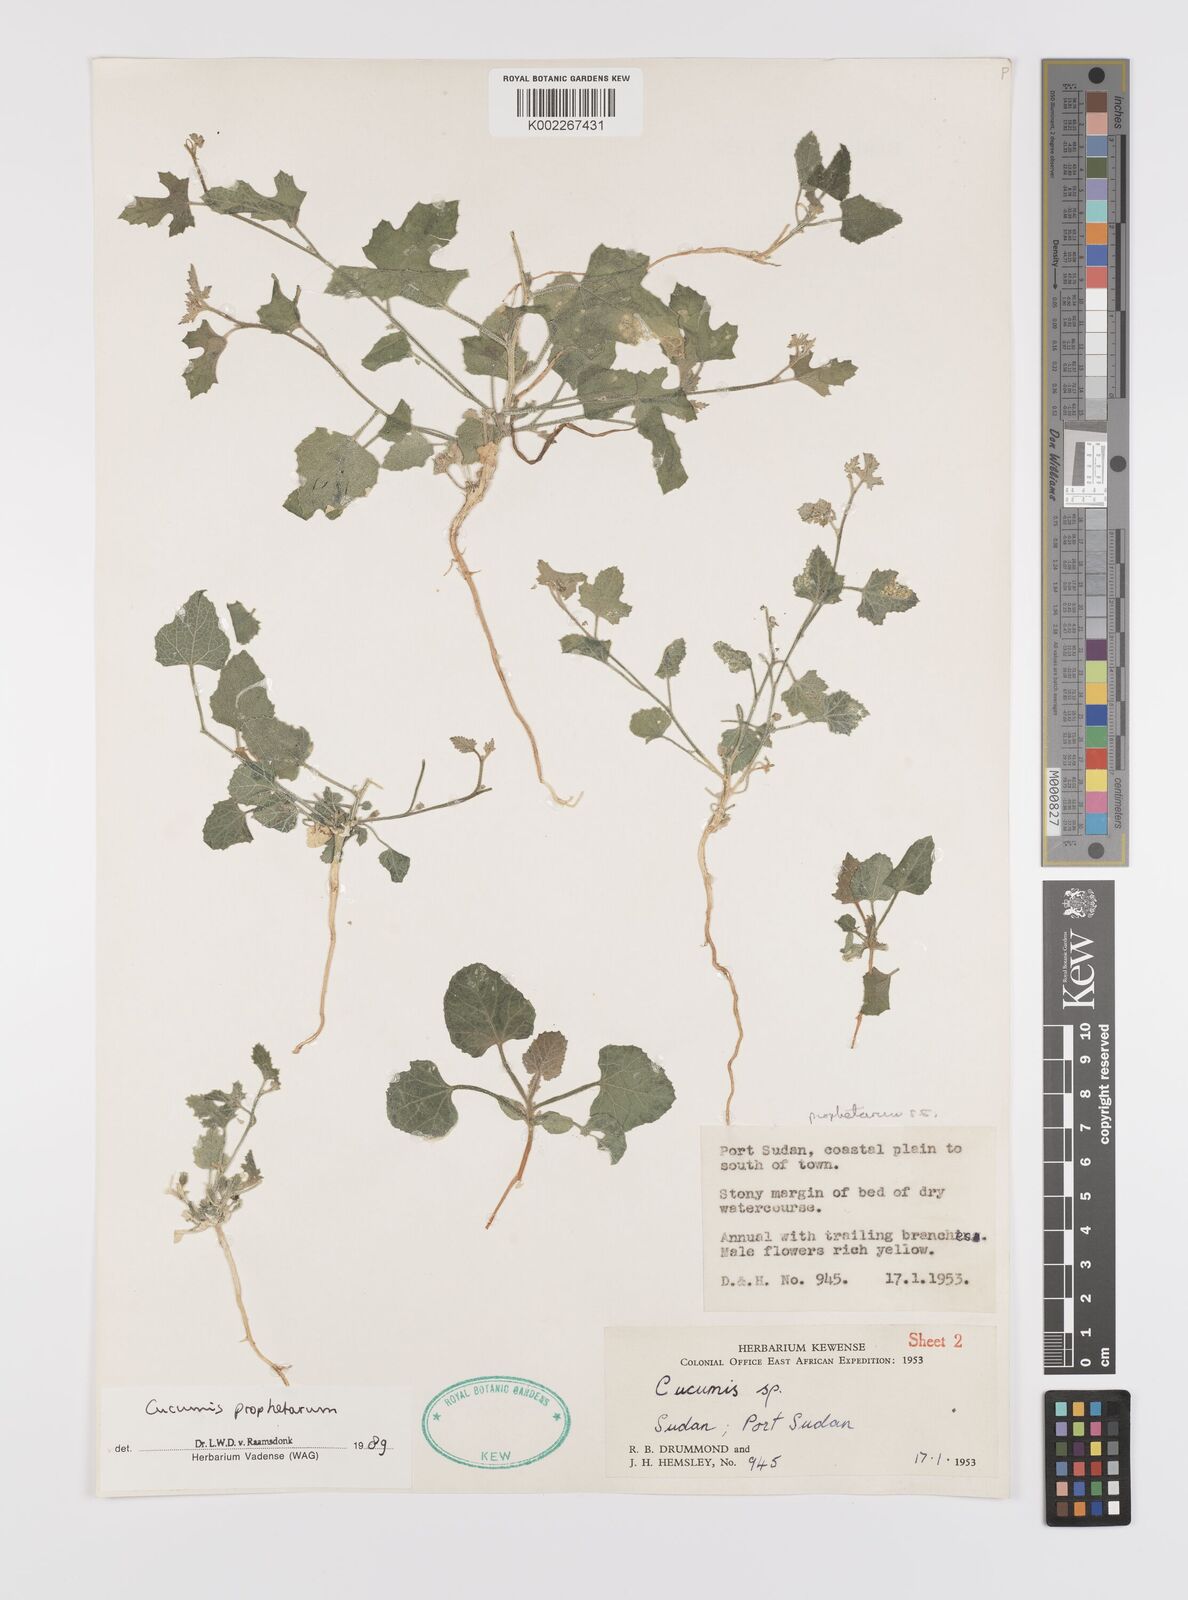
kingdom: Plantae
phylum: Tracheophyta
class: Magnoliopsida
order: Cucurbitales
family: Cucurbitaceae
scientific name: Cucurbitaceae
